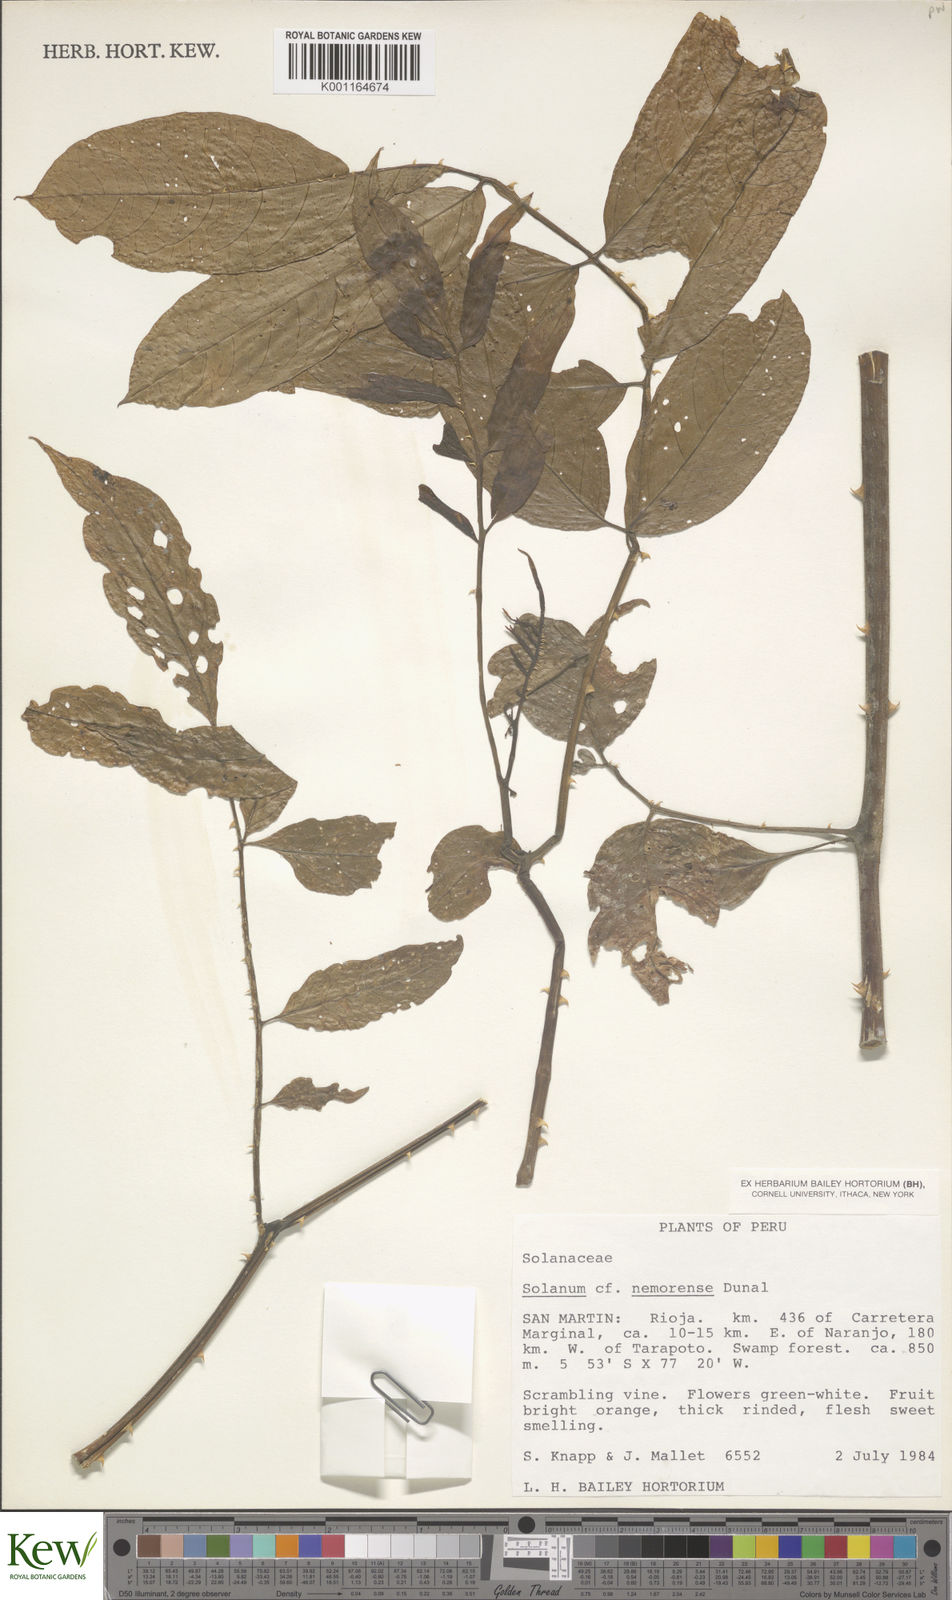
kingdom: Plantae
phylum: Tracheophyta
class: Magnoliopsida
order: Solanales
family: Solanaceae
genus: Solanum
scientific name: Solanum nemorense
